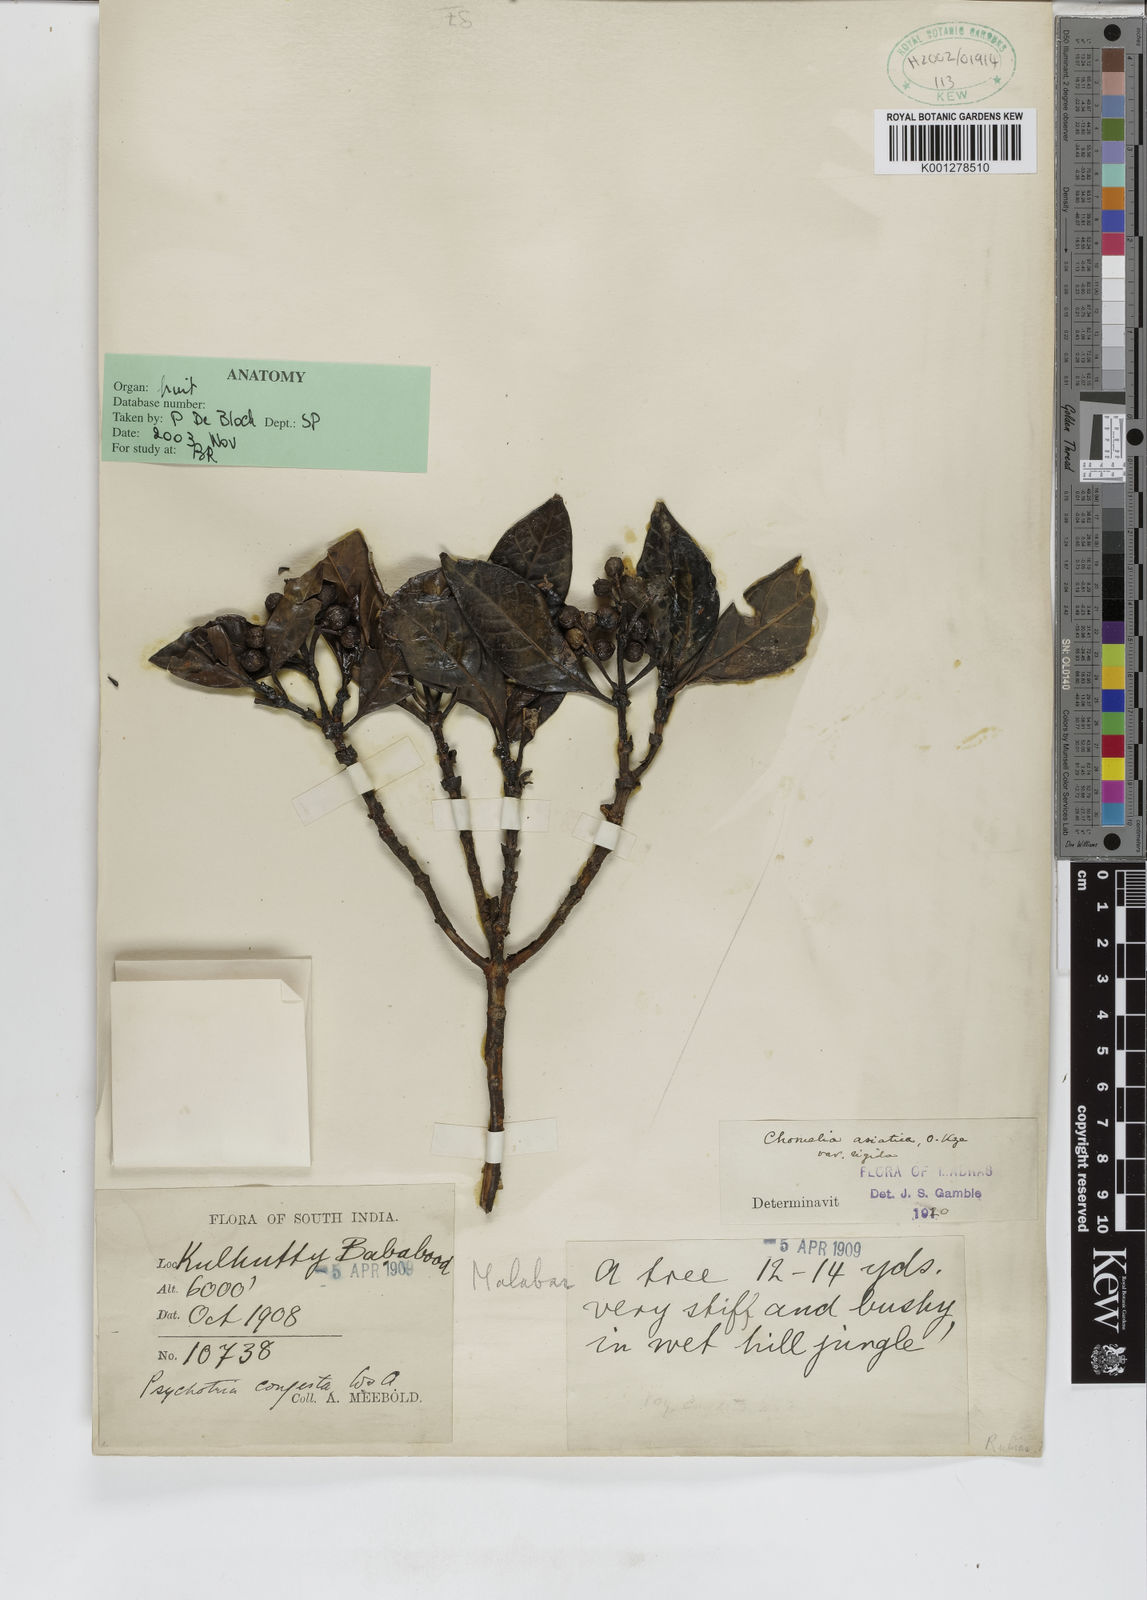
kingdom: Plantae
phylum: Tracheophyta
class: Magnoliopsida
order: Gentianales
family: Rubiaceae
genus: Tarenna
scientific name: Tarenna asiatica
